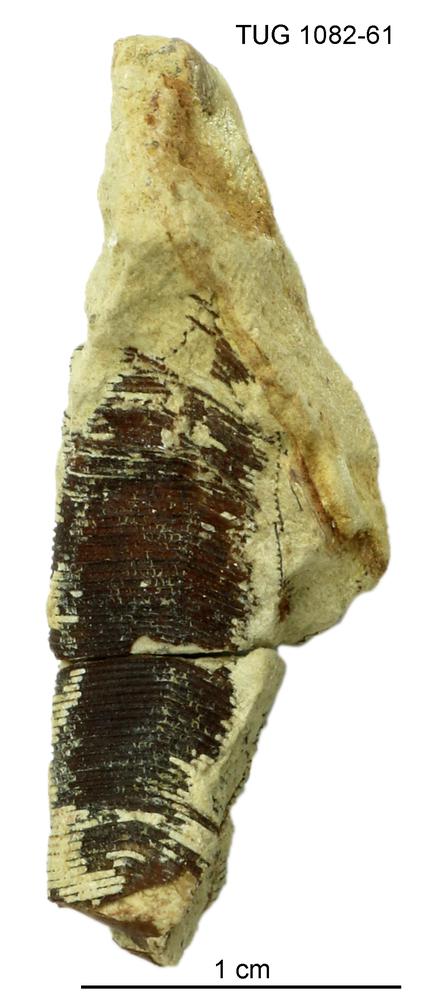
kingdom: Animalia
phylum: Cnidaria
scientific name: Cnidaria
